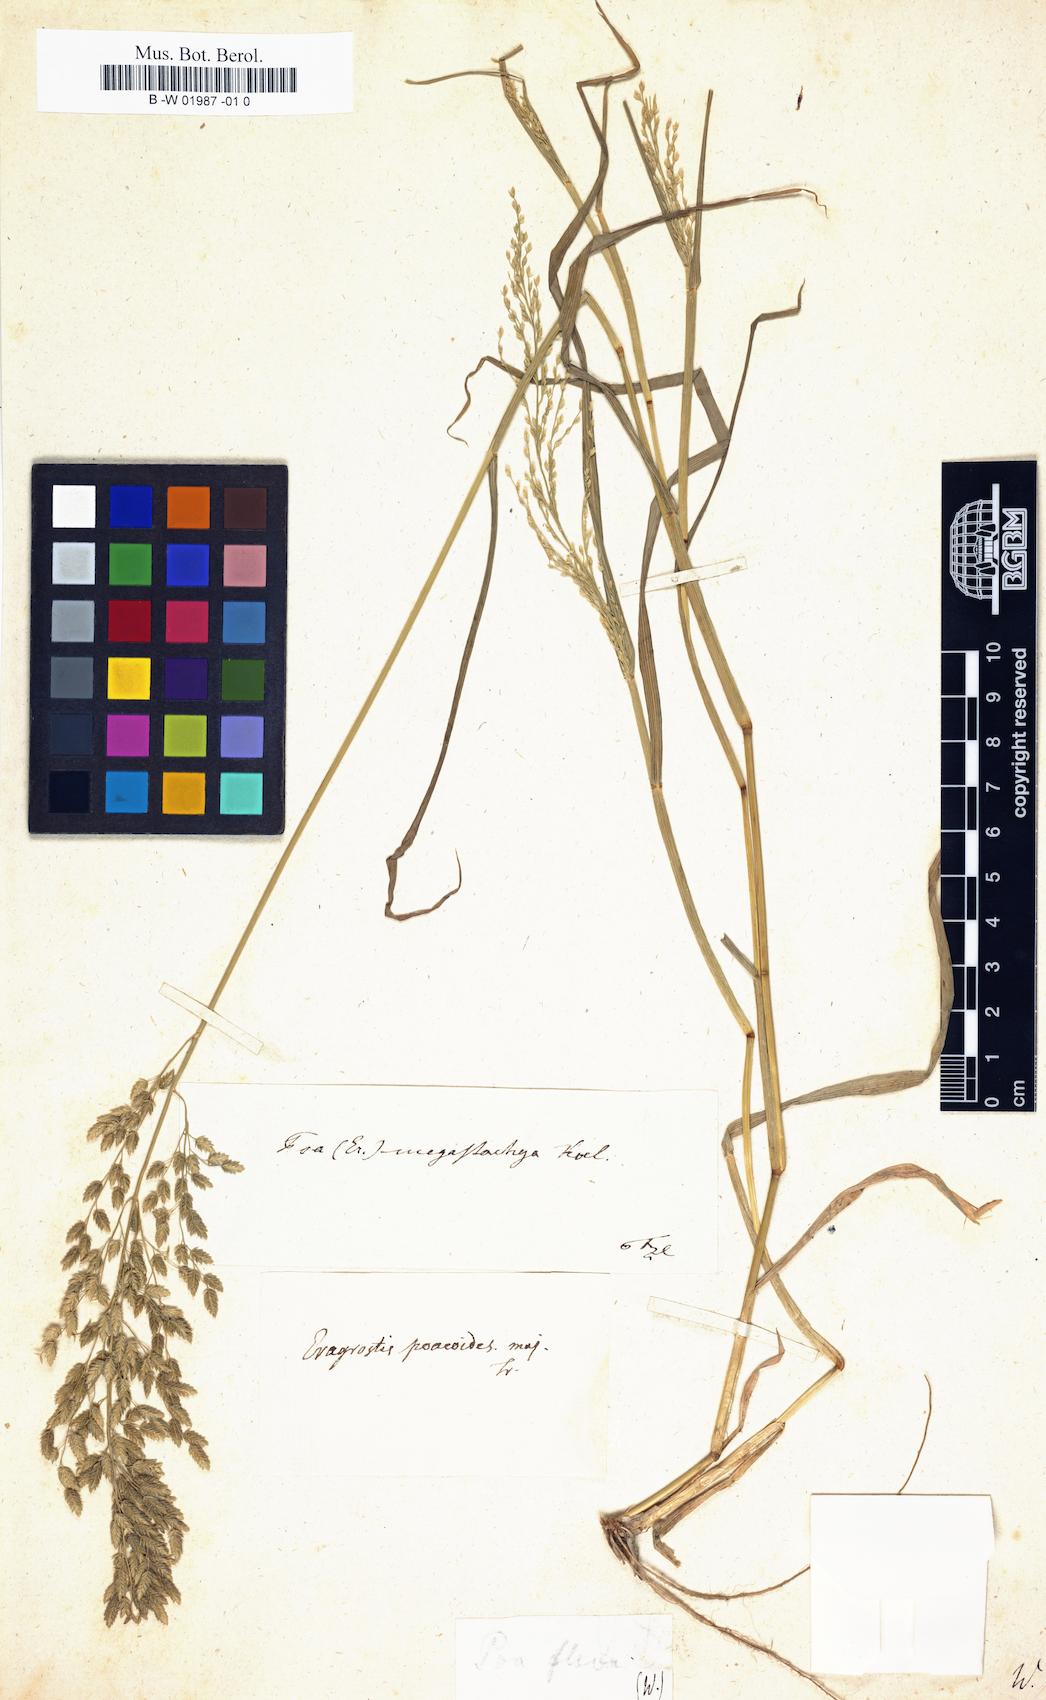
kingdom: Plantae
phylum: Tracheophyta
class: Liliopsida
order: Poales
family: Poaceae
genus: Tridens
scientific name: Tridens flavus
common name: Purpletop
